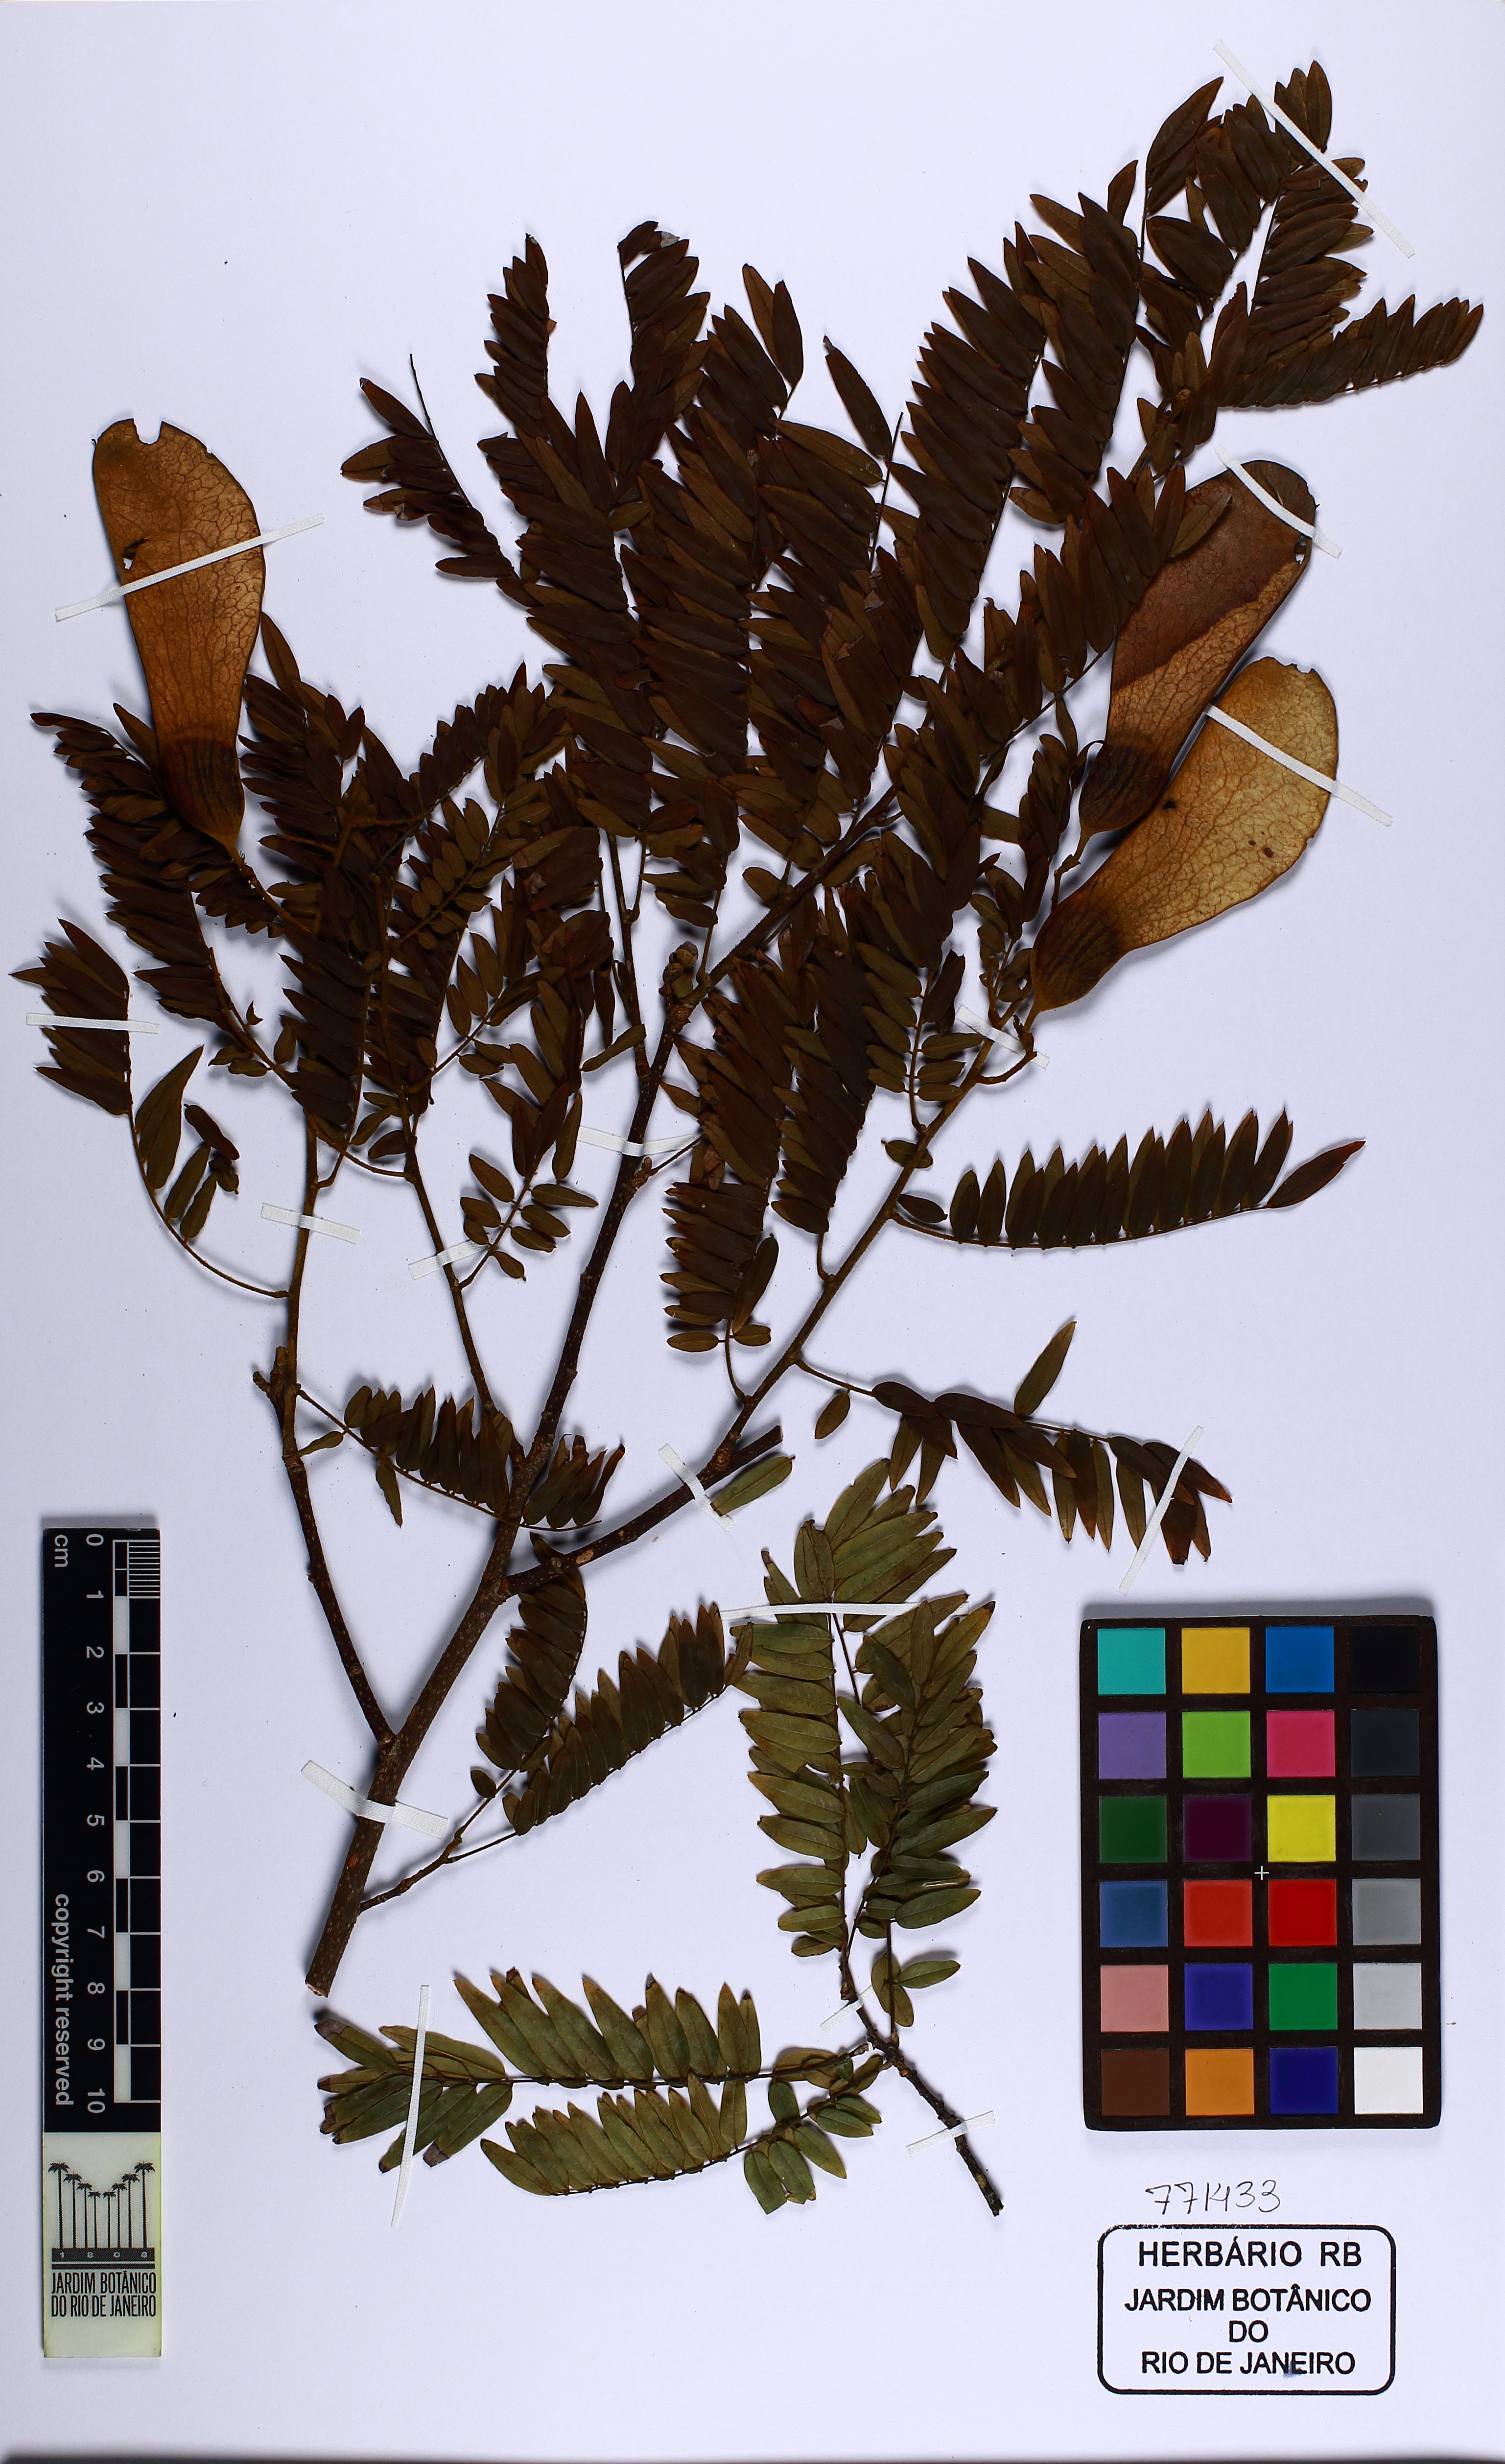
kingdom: Plantae
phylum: Tracheophyta
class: Magnoliopsida
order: Fabales
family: Fabaceae
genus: Machaerium
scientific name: Machaerium incorruptibile
